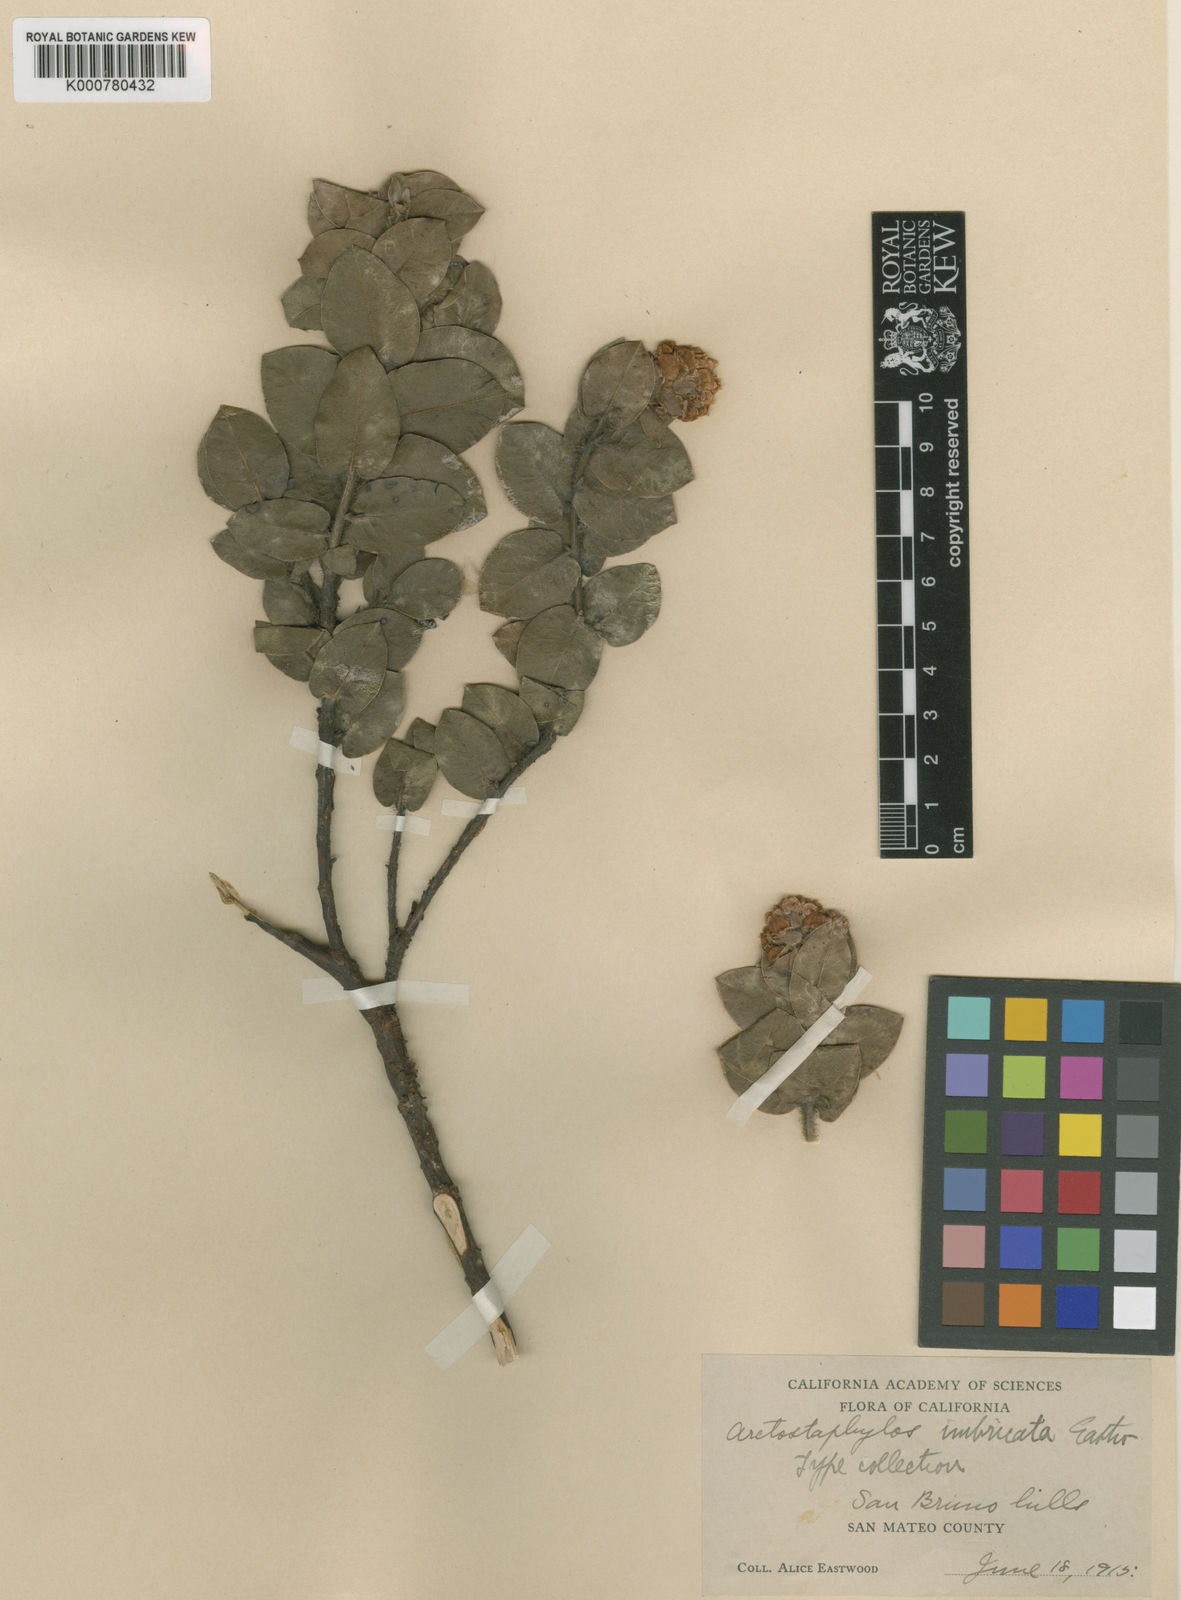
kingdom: Plantae
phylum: Tracheophyta
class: Magnoliopsida
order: Ericales
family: Ericaceae
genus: Arctostaphylos
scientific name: Arctostaphylos imbricata
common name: San bruno mountain manzanita
